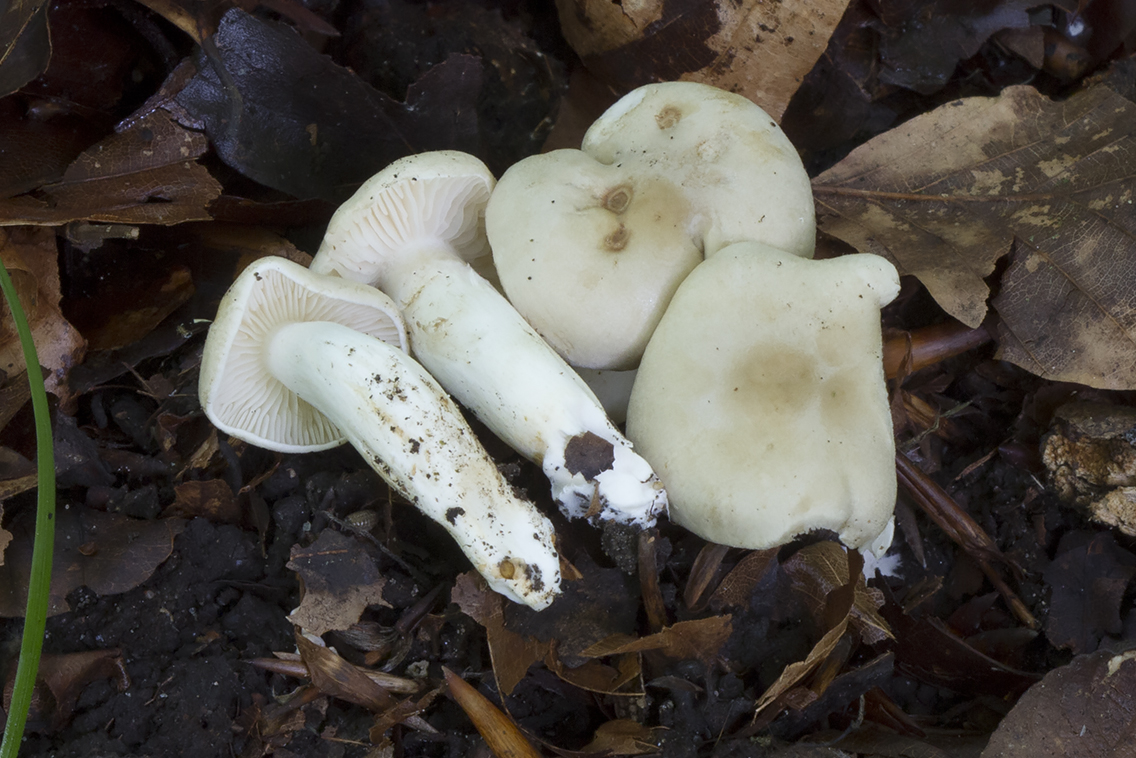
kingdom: Fungi
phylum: Basidiomycota
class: Agaricomycetes
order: Agaricales
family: Tricholomataceae
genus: Tricholoma
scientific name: Tricholoma lascivum
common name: stinkende ridderhat
